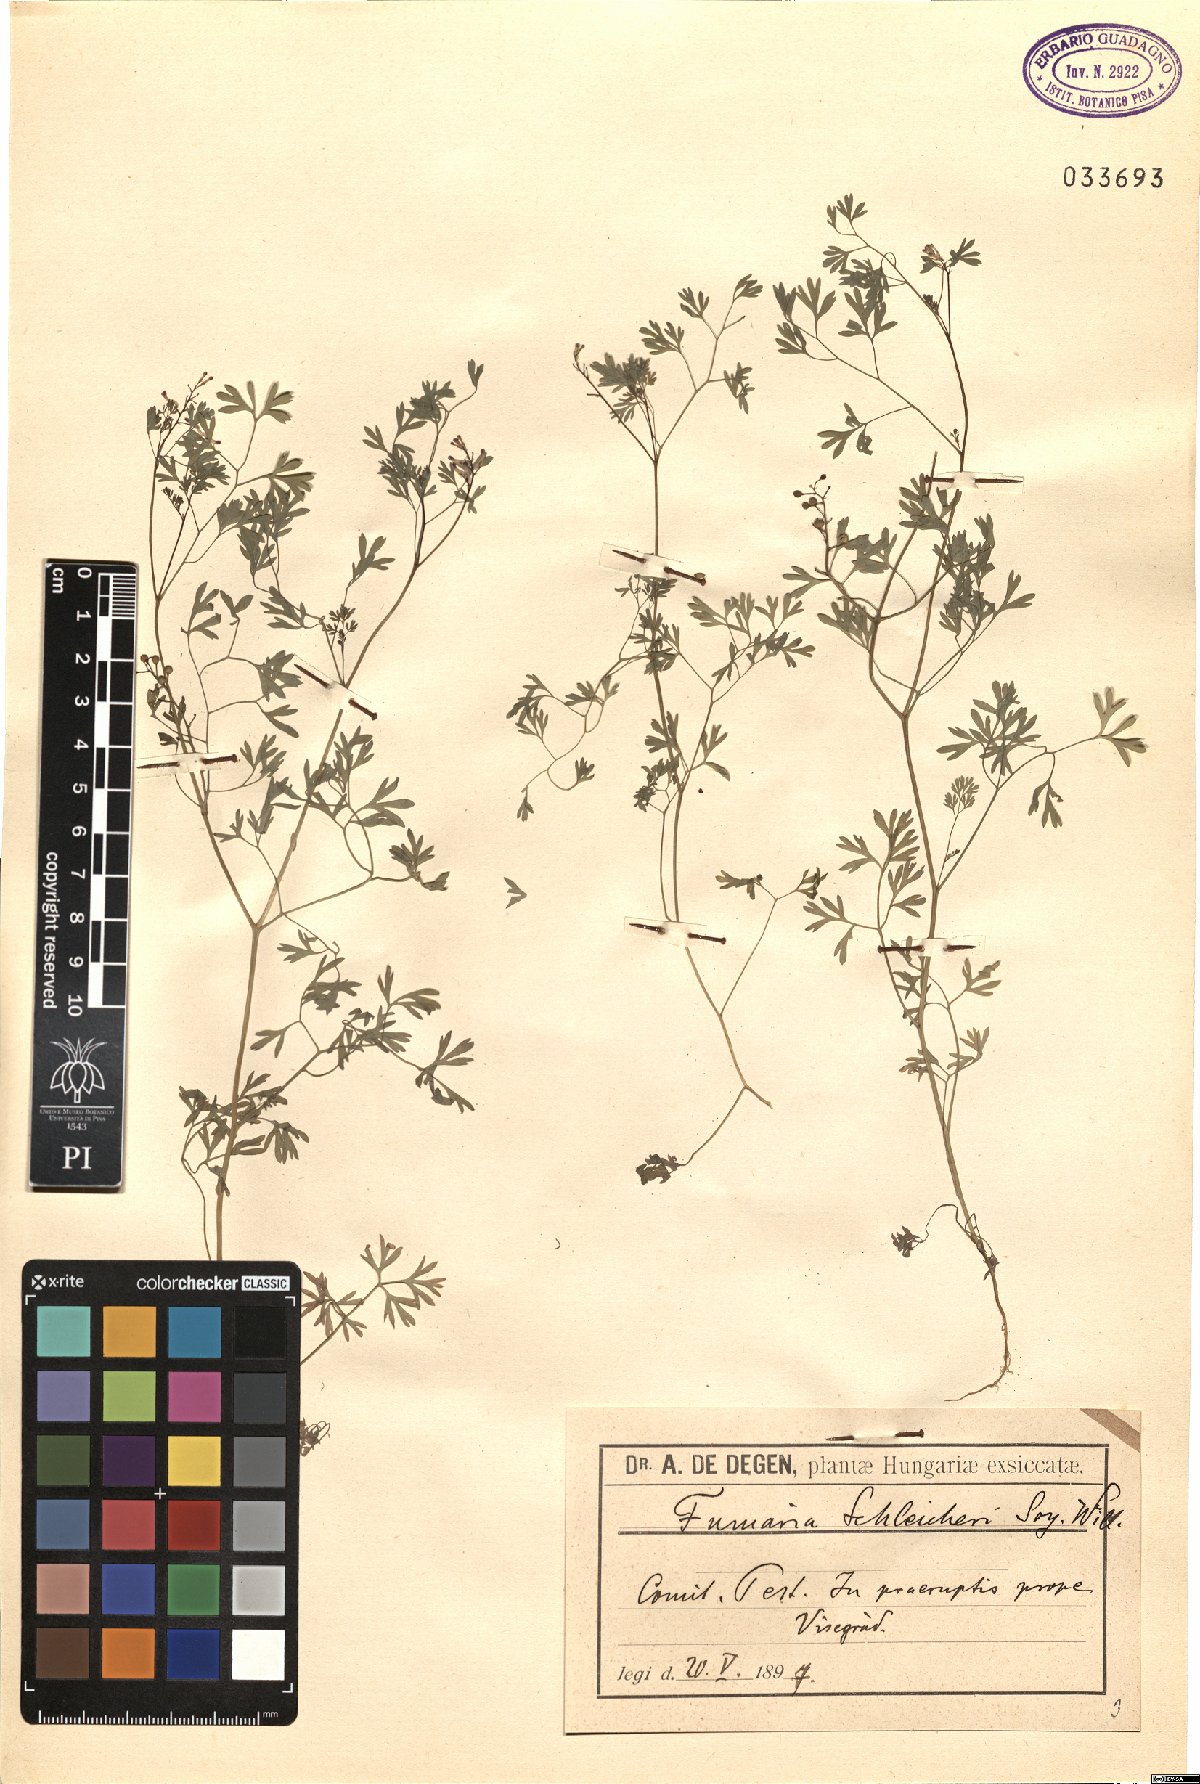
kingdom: Plantae
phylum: Tracheophyta
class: Magnoliopsida
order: Ranunculales
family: Papaveraceae
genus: Fumaria
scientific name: Fumaria schleicheri
